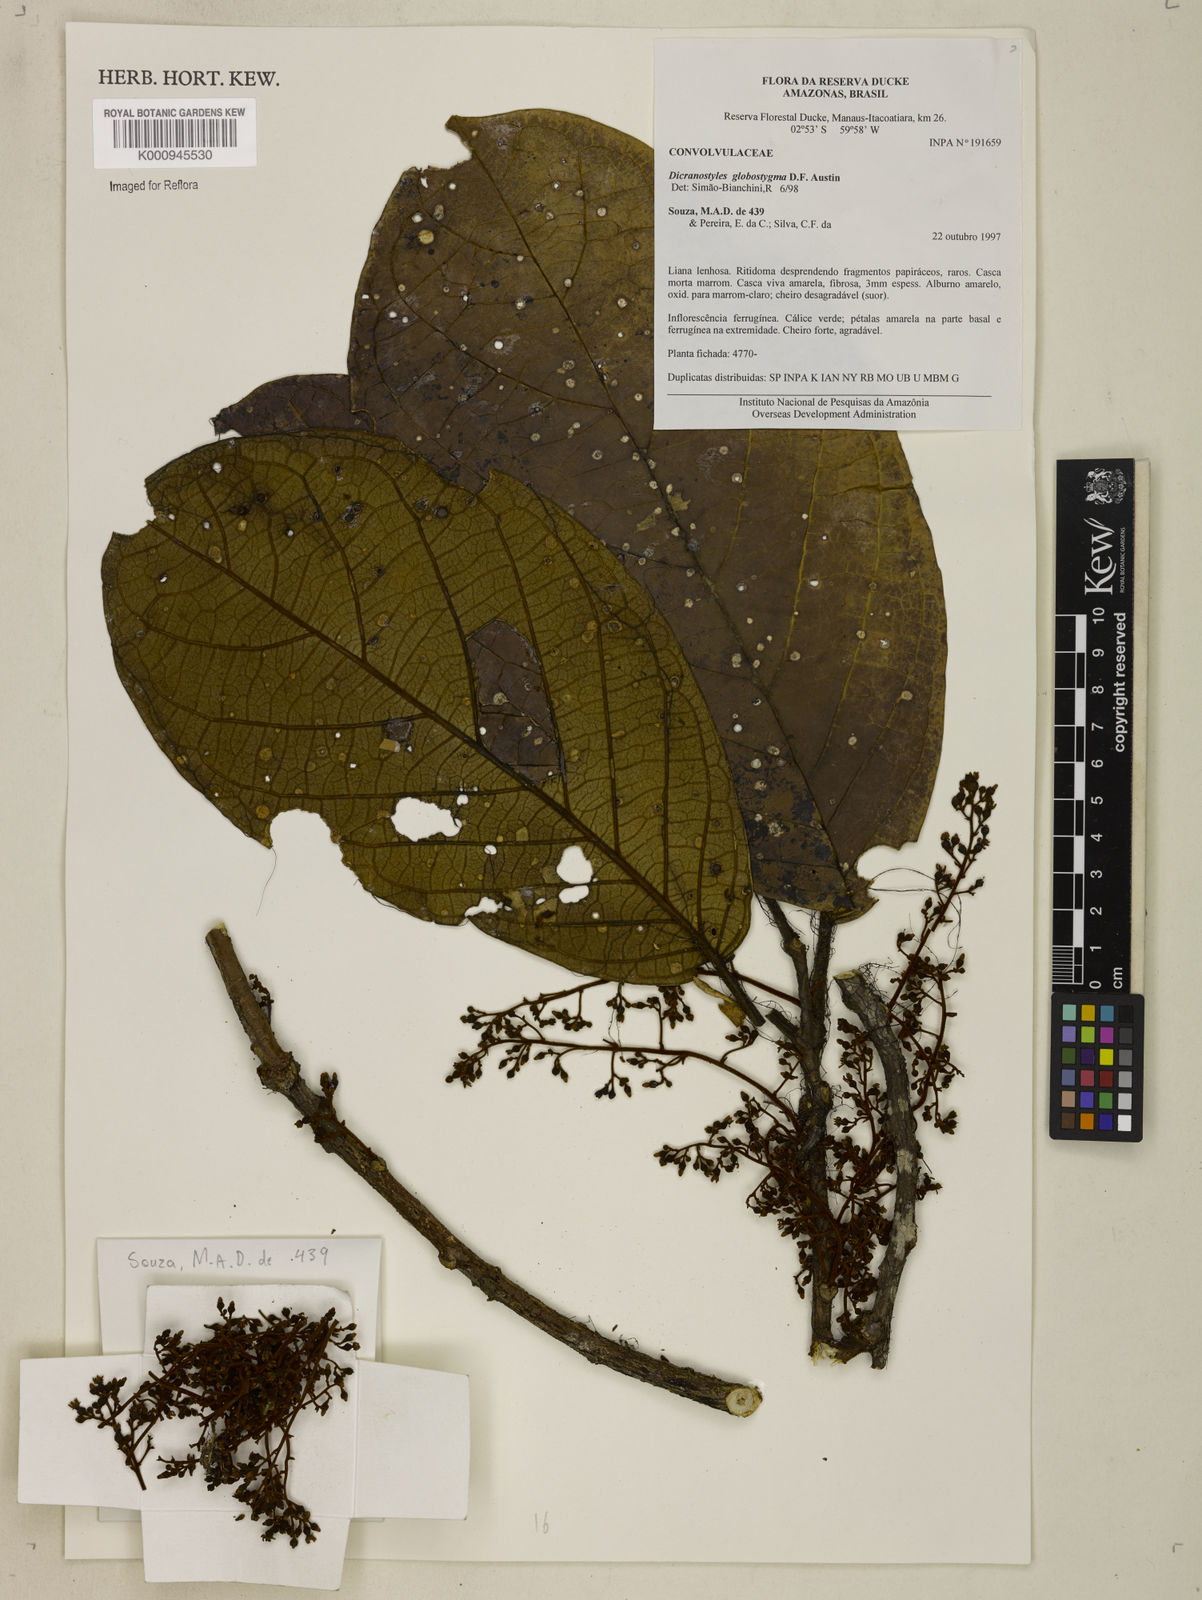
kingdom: Plantae
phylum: Tracheophyta
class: Magnoliopsida
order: Solanales
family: Convolvulaceae
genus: Dicranostyles
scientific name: Dicranostyles globostigma
